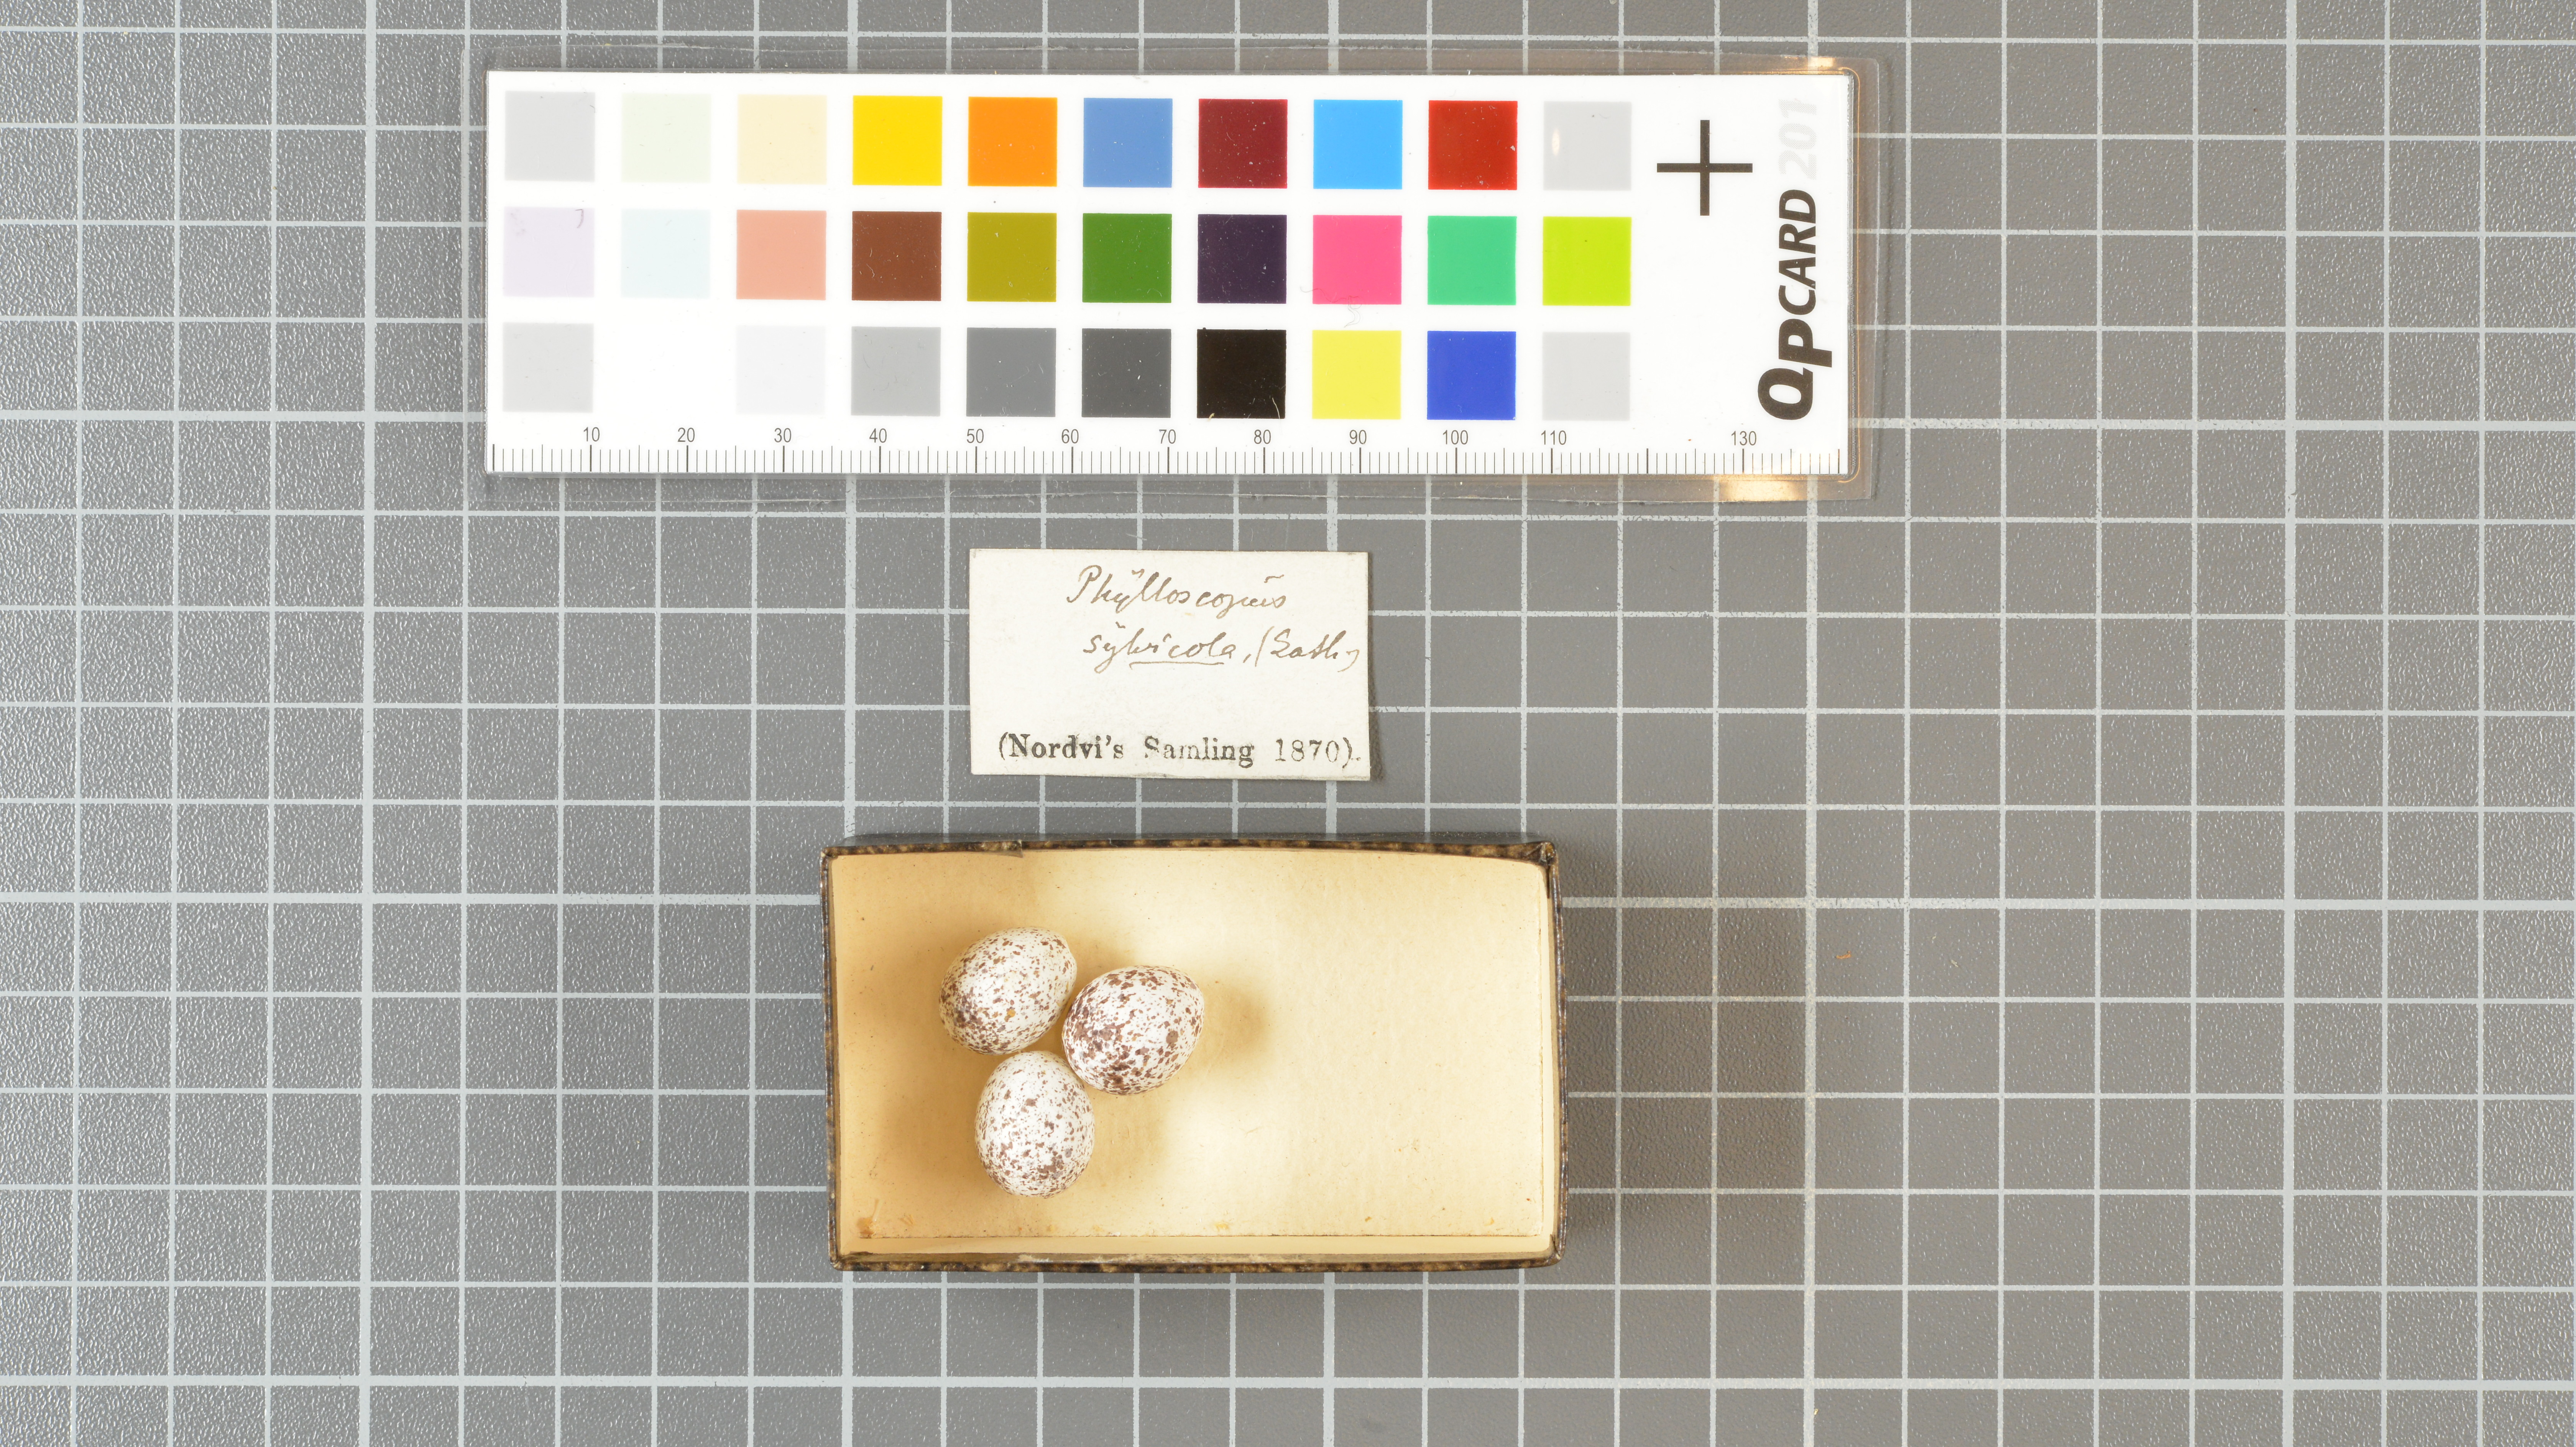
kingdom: Animalia
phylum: Chordata
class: Aves
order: Passeriformes
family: Phylloscopidae
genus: Phylloscopus
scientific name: Phylloscopus sibillatrix
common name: Wood warbler
